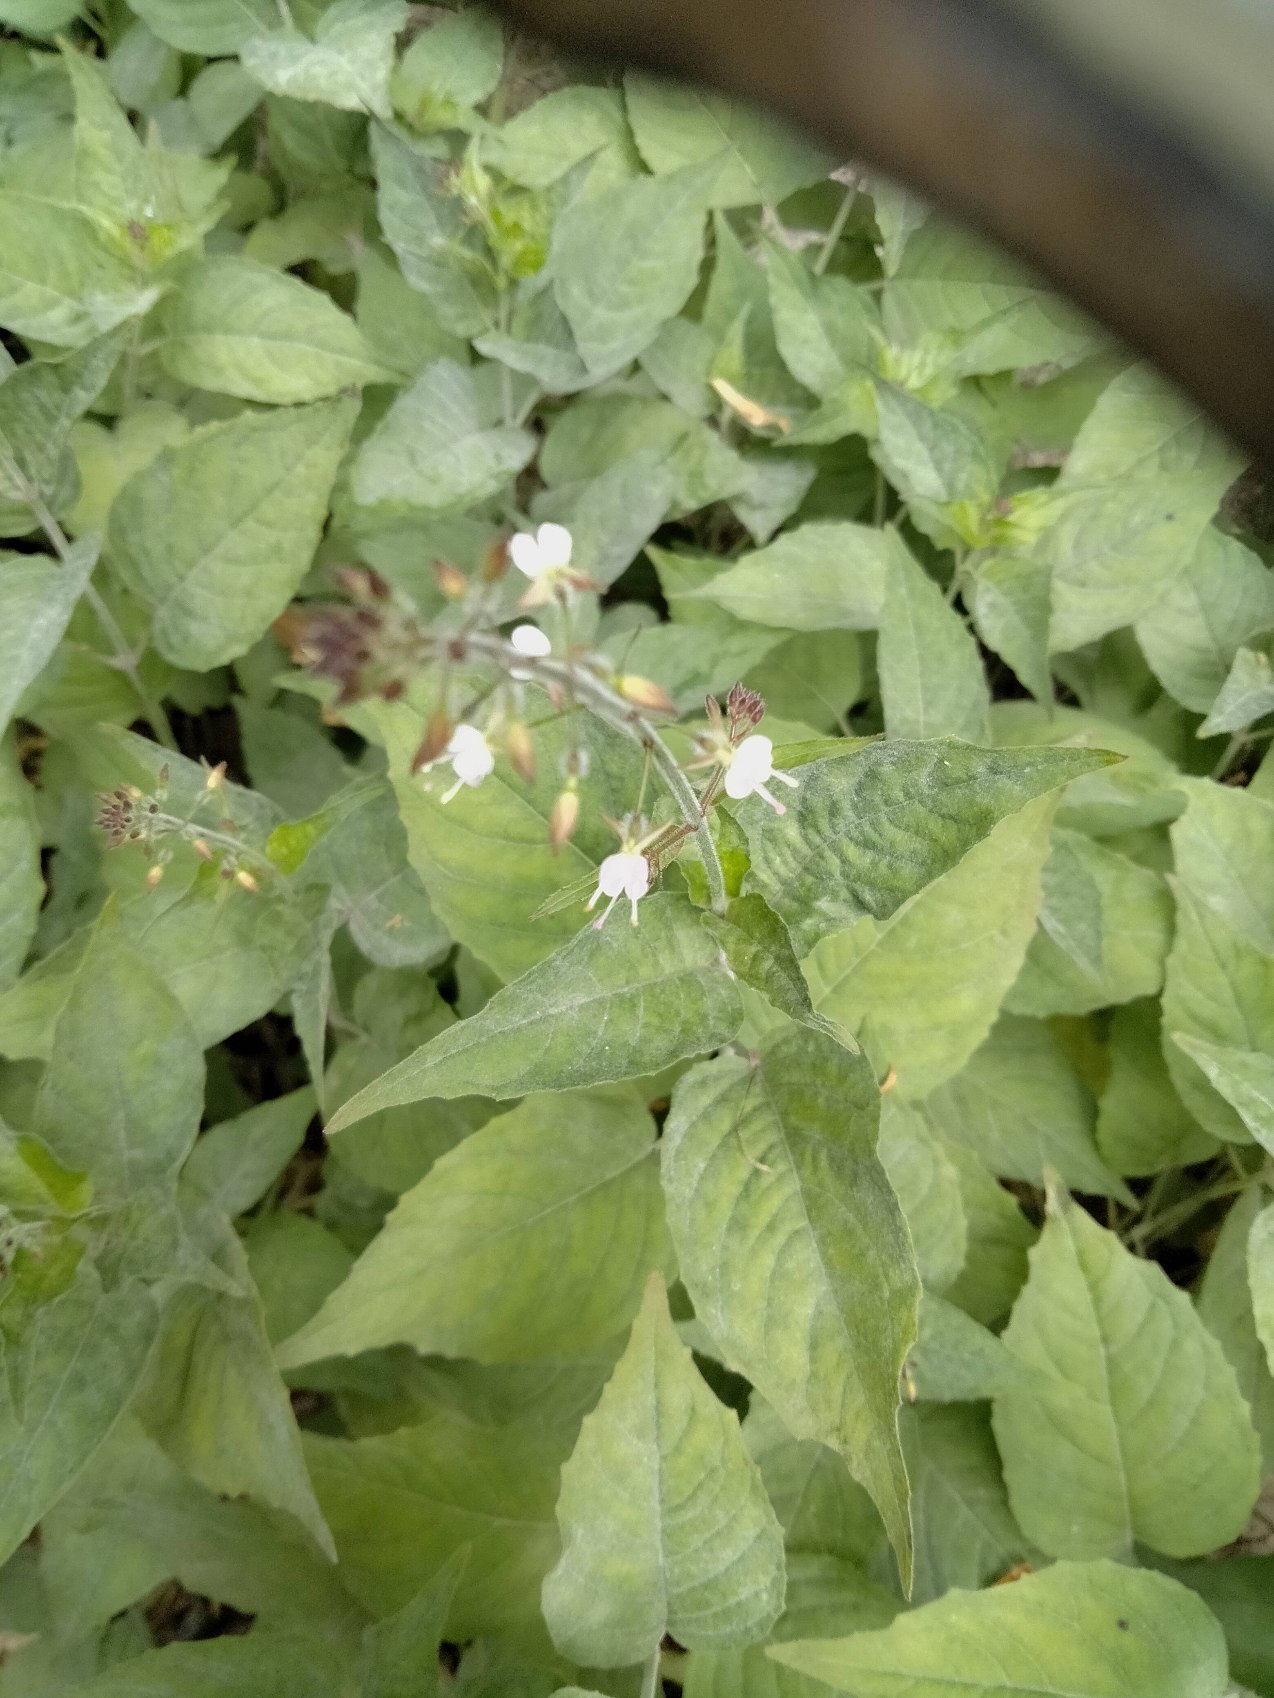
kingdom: Plantae
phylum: Tracheophyta
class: Magnoliopsida
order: Myrtales
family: Onagraceae
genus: Circaea
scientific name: Circaea lutetiana
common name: Dunet steffensurt
